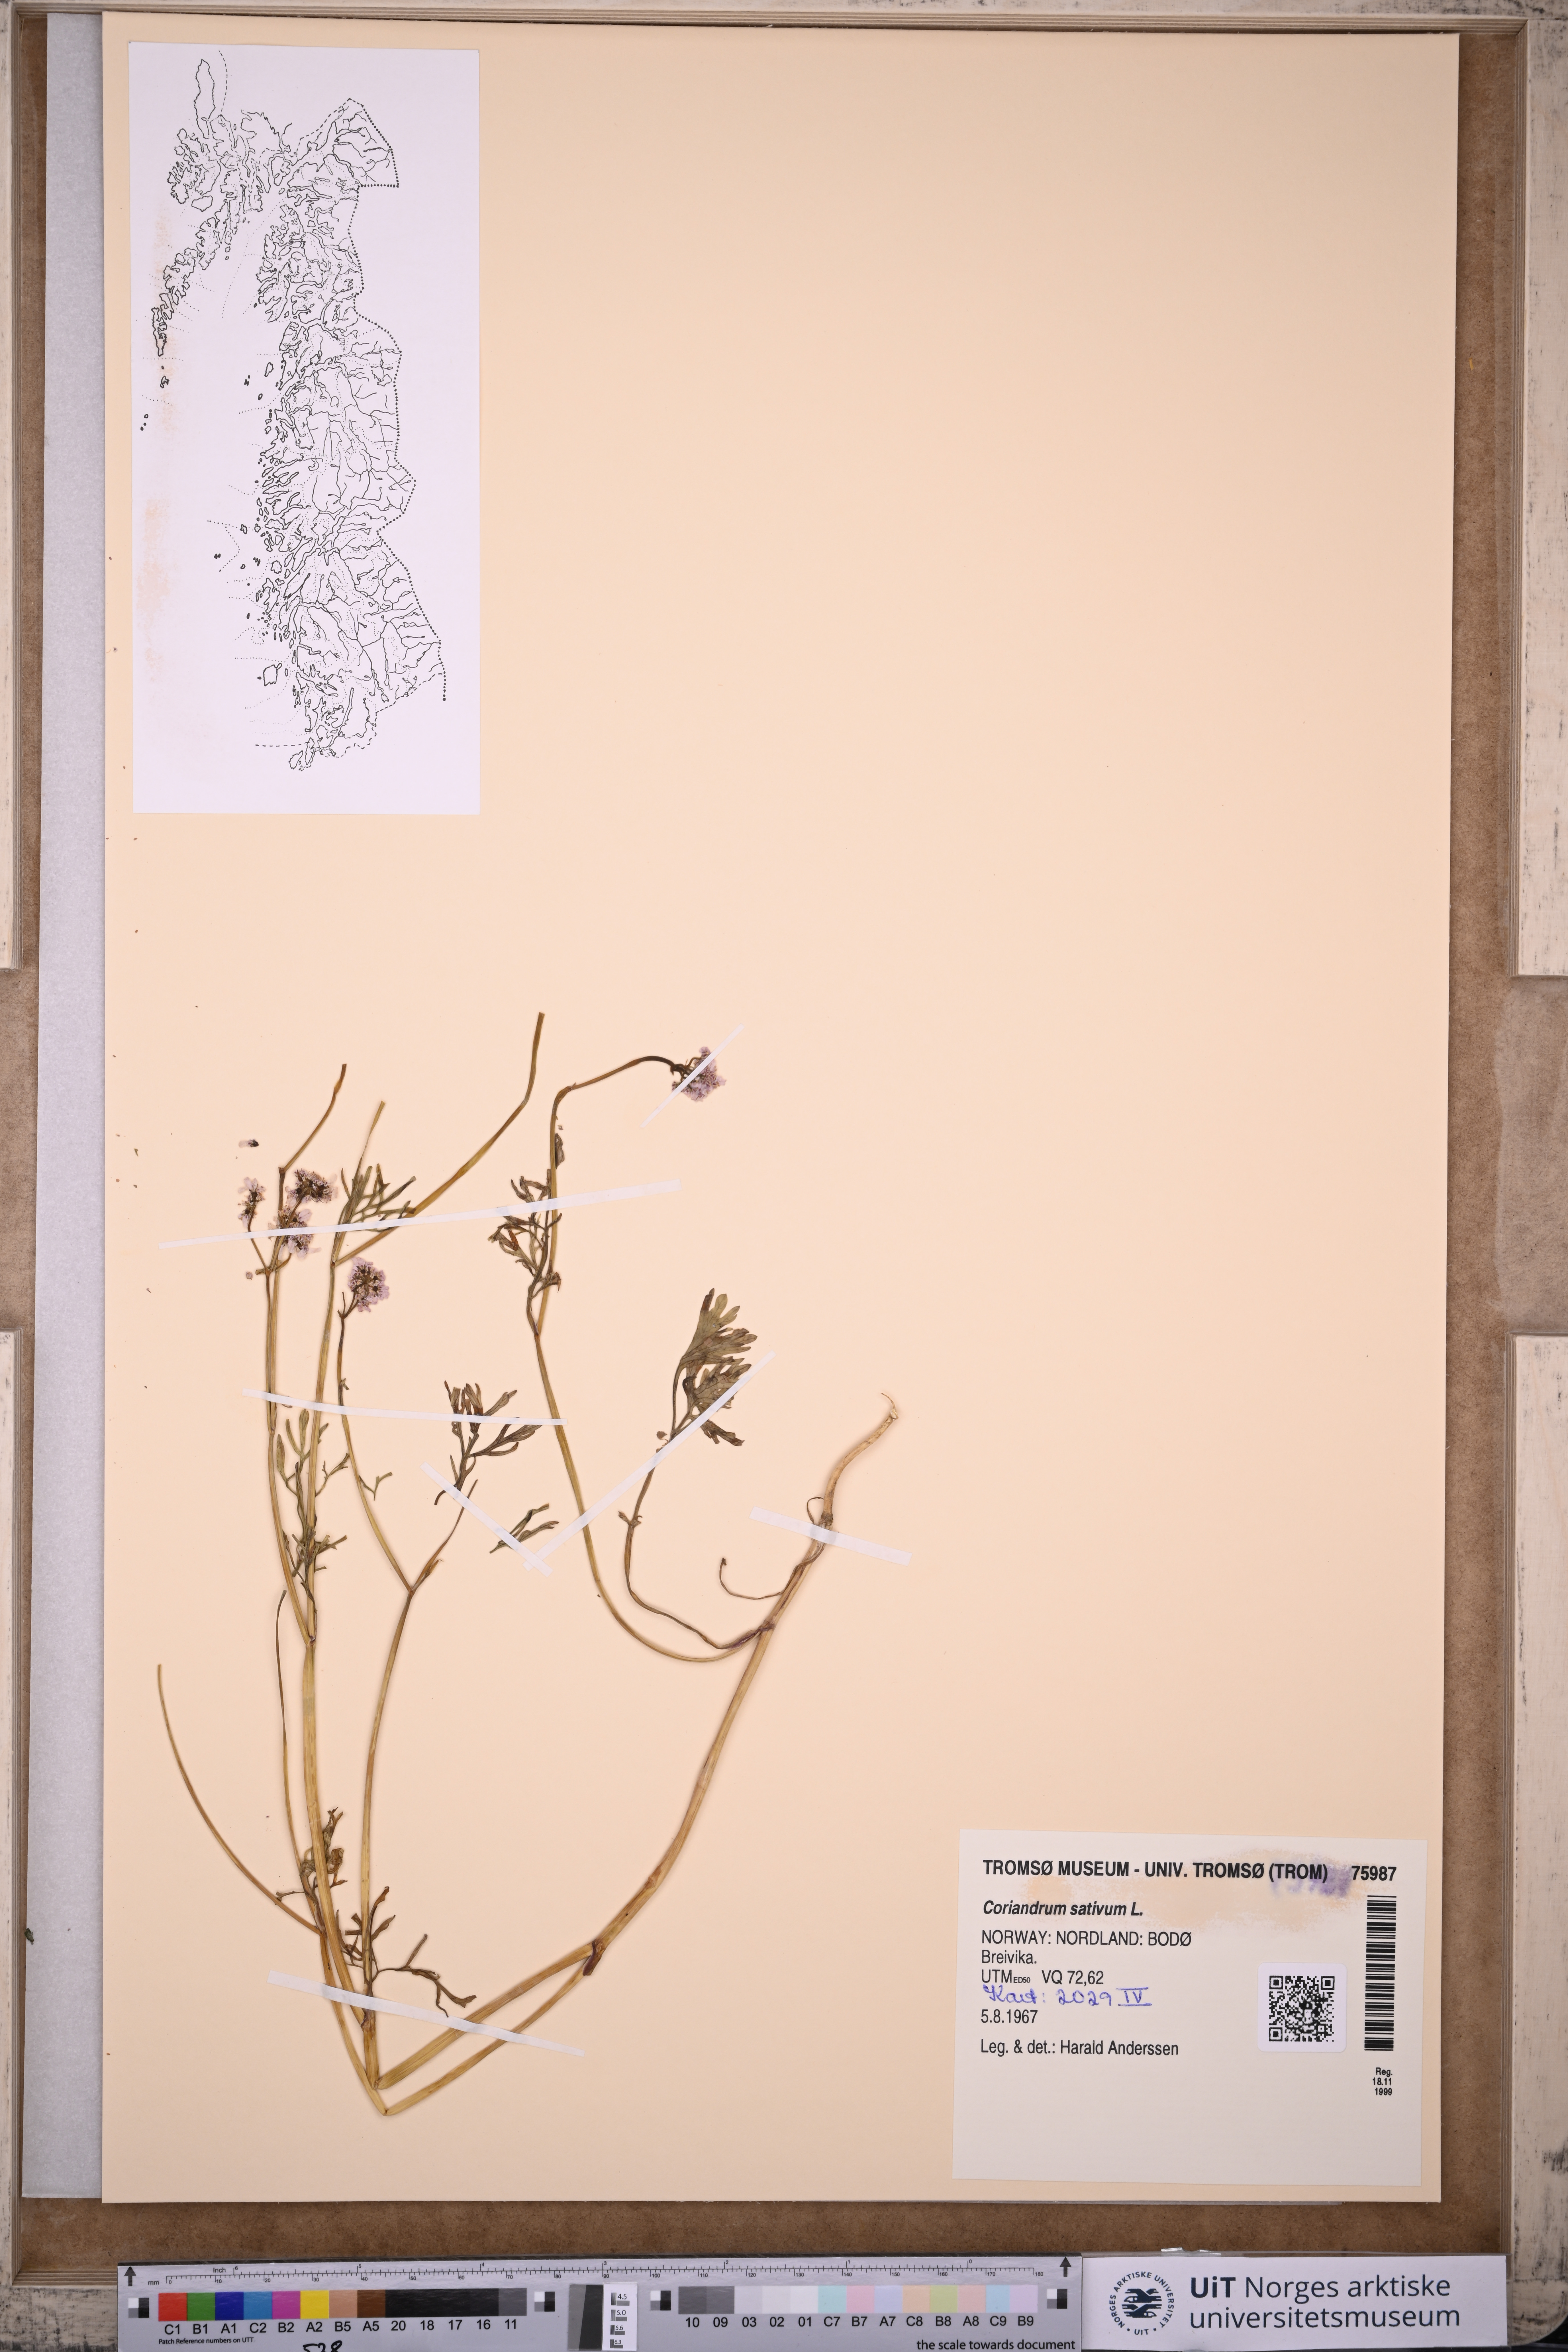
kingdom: Plantae
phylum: Tracheophyta
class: Magnoliopsida
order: Apiales
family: Apiaceae
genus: Coriandrum
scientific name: Coriandrum sativum
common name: Coriander
